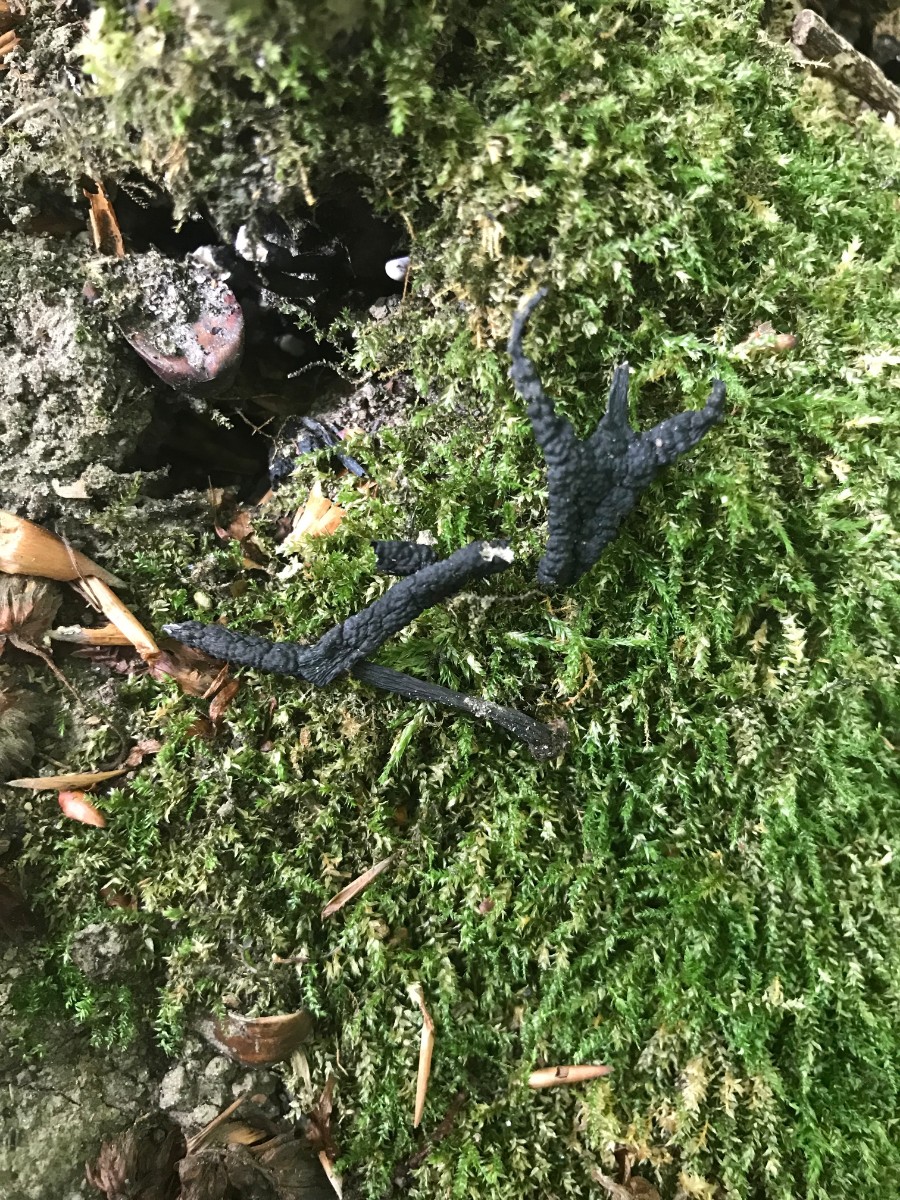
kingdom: Fungi
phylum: Ascomycota
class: Sordariomycetes
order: Xylariales
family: Xylariaceae
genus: Xylaria
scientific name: Xylaria hypoxylon
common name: grenet stødsvamp
